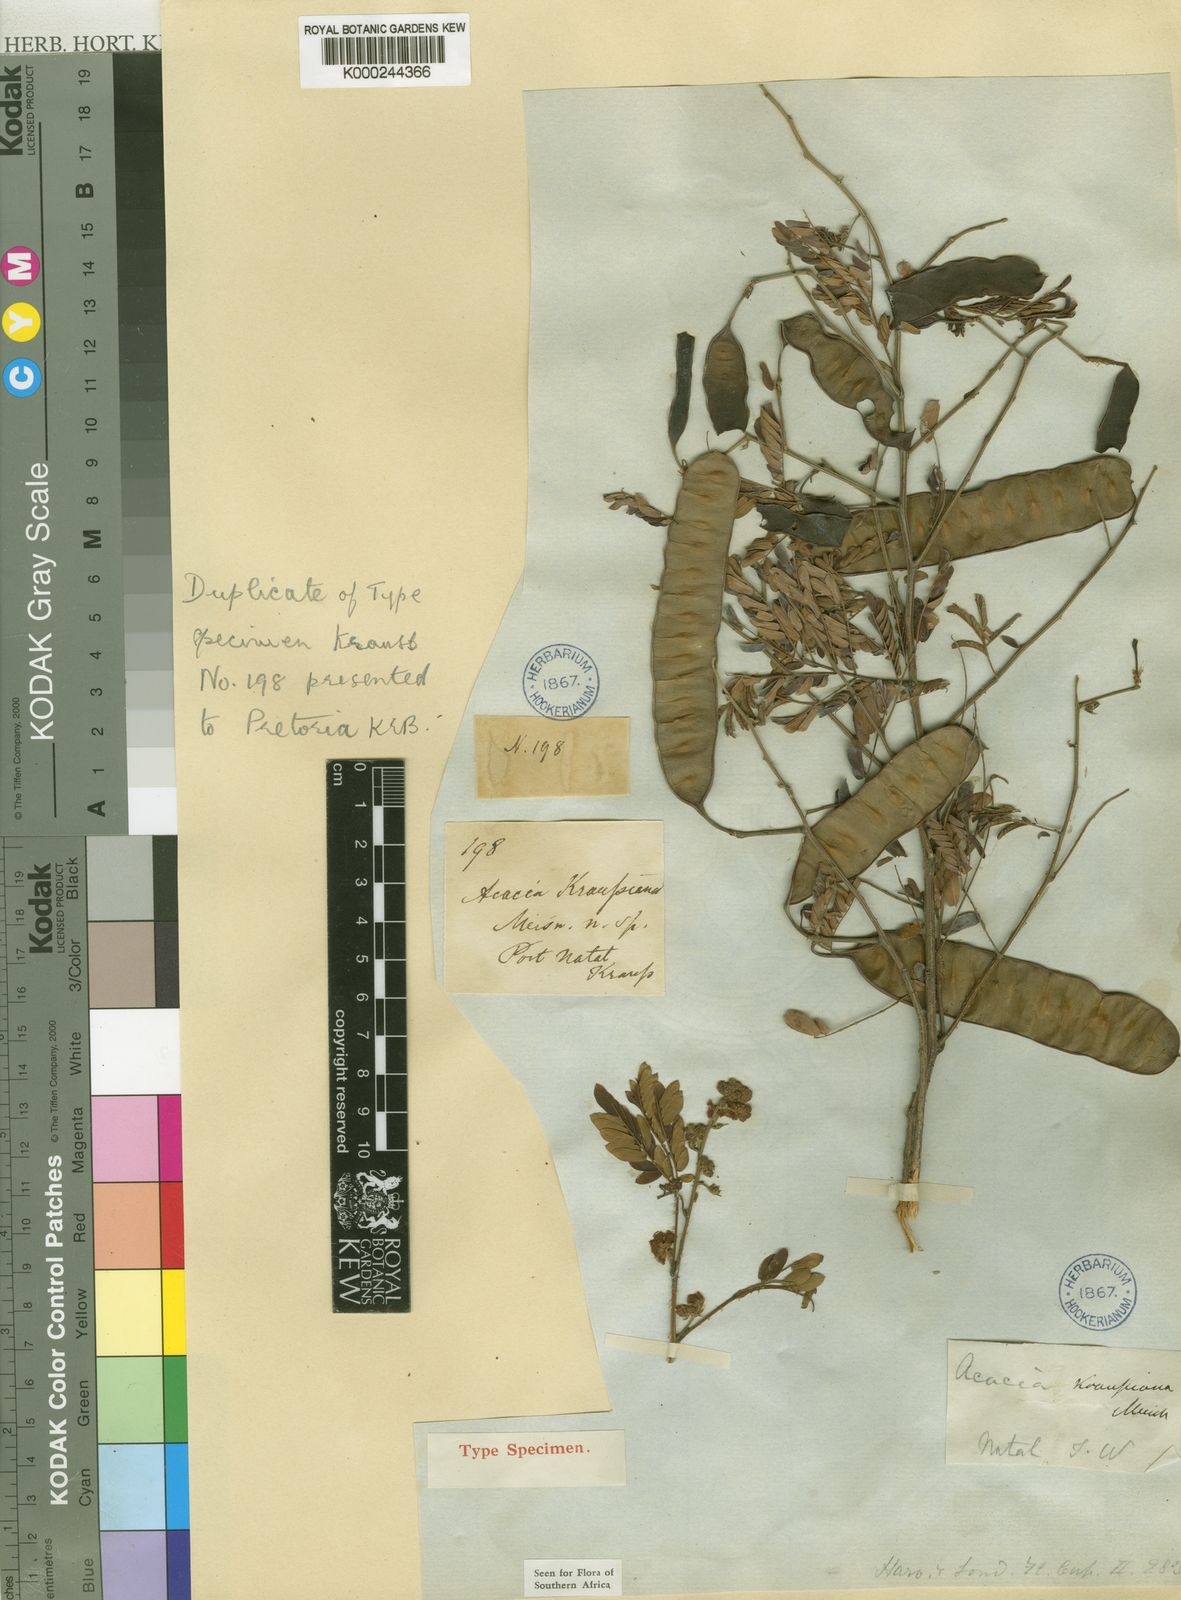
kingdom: Plantae
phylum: Tracheophyta
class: Magnoliopsida
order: Fabales
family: Fabaceae
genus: Senegalia
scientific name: Senegalia kraussiana
